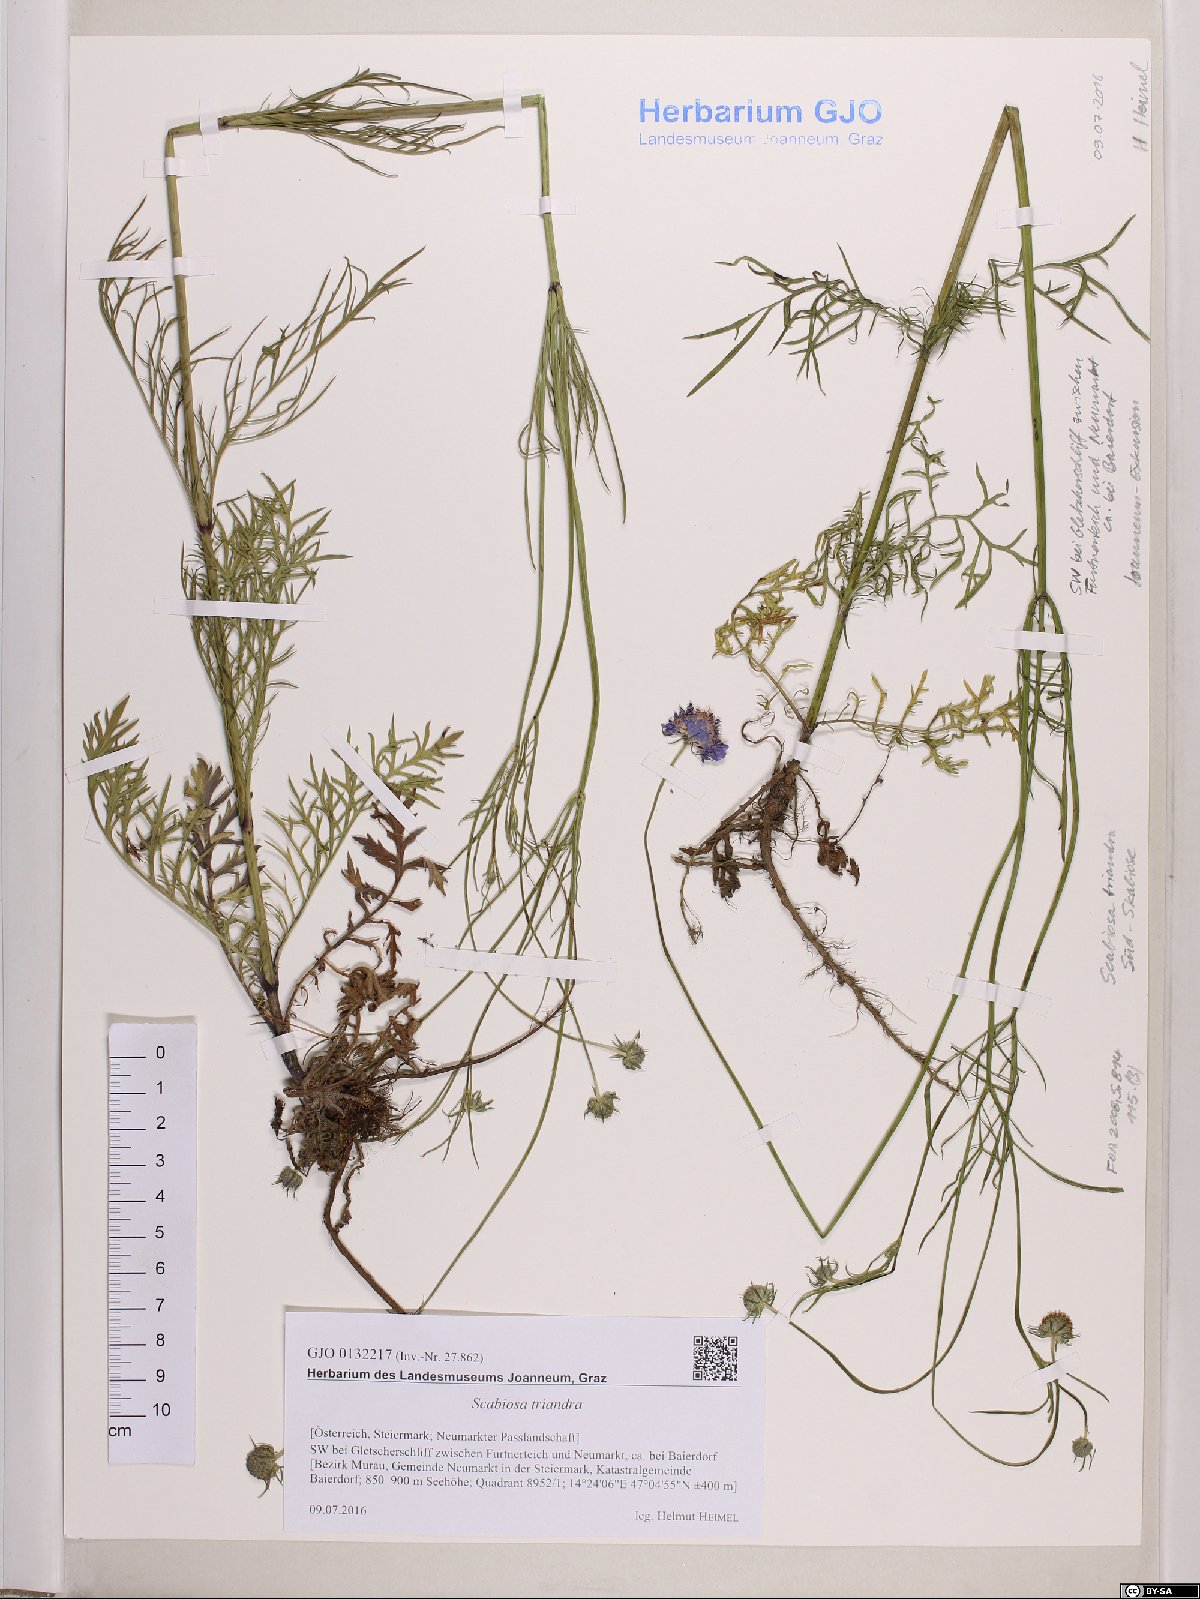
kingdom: Plantae
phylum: Tracheophyta
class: Magnoliopsida
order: Dipsacales
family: Caprifoliaceae
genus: Scabiosa
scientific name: Scabiosa triandra
